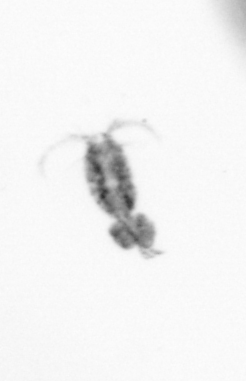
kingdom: Animalia
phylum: Arthropoda
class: Copepoda
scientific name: Copepoda
